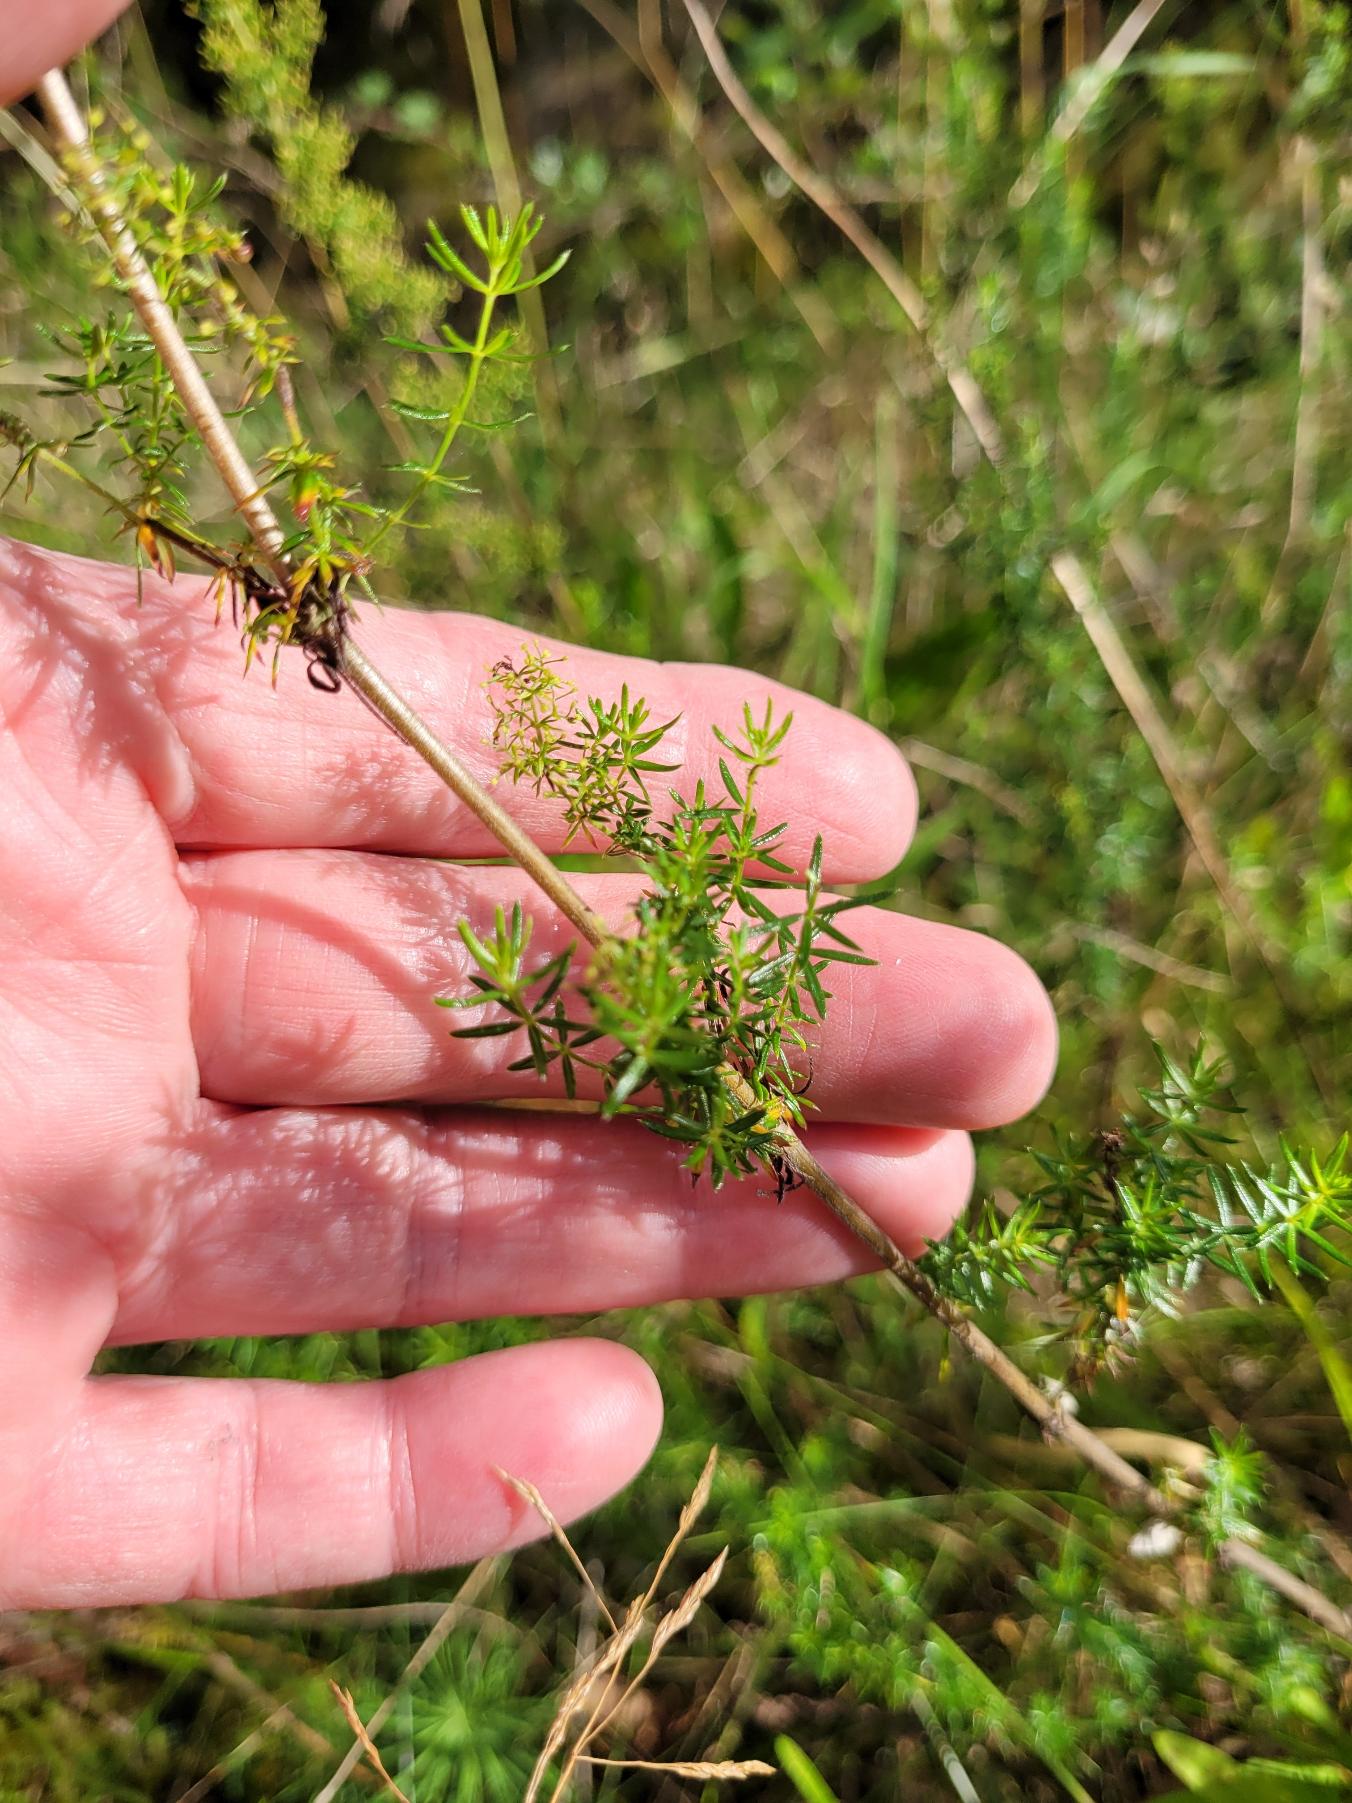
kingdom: Plantae
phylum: Tracheophyta
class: Magnoliopsida
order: Gentianales
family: Rubiaceae
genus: Galium
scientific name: Galium verum
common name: Gul snerre
